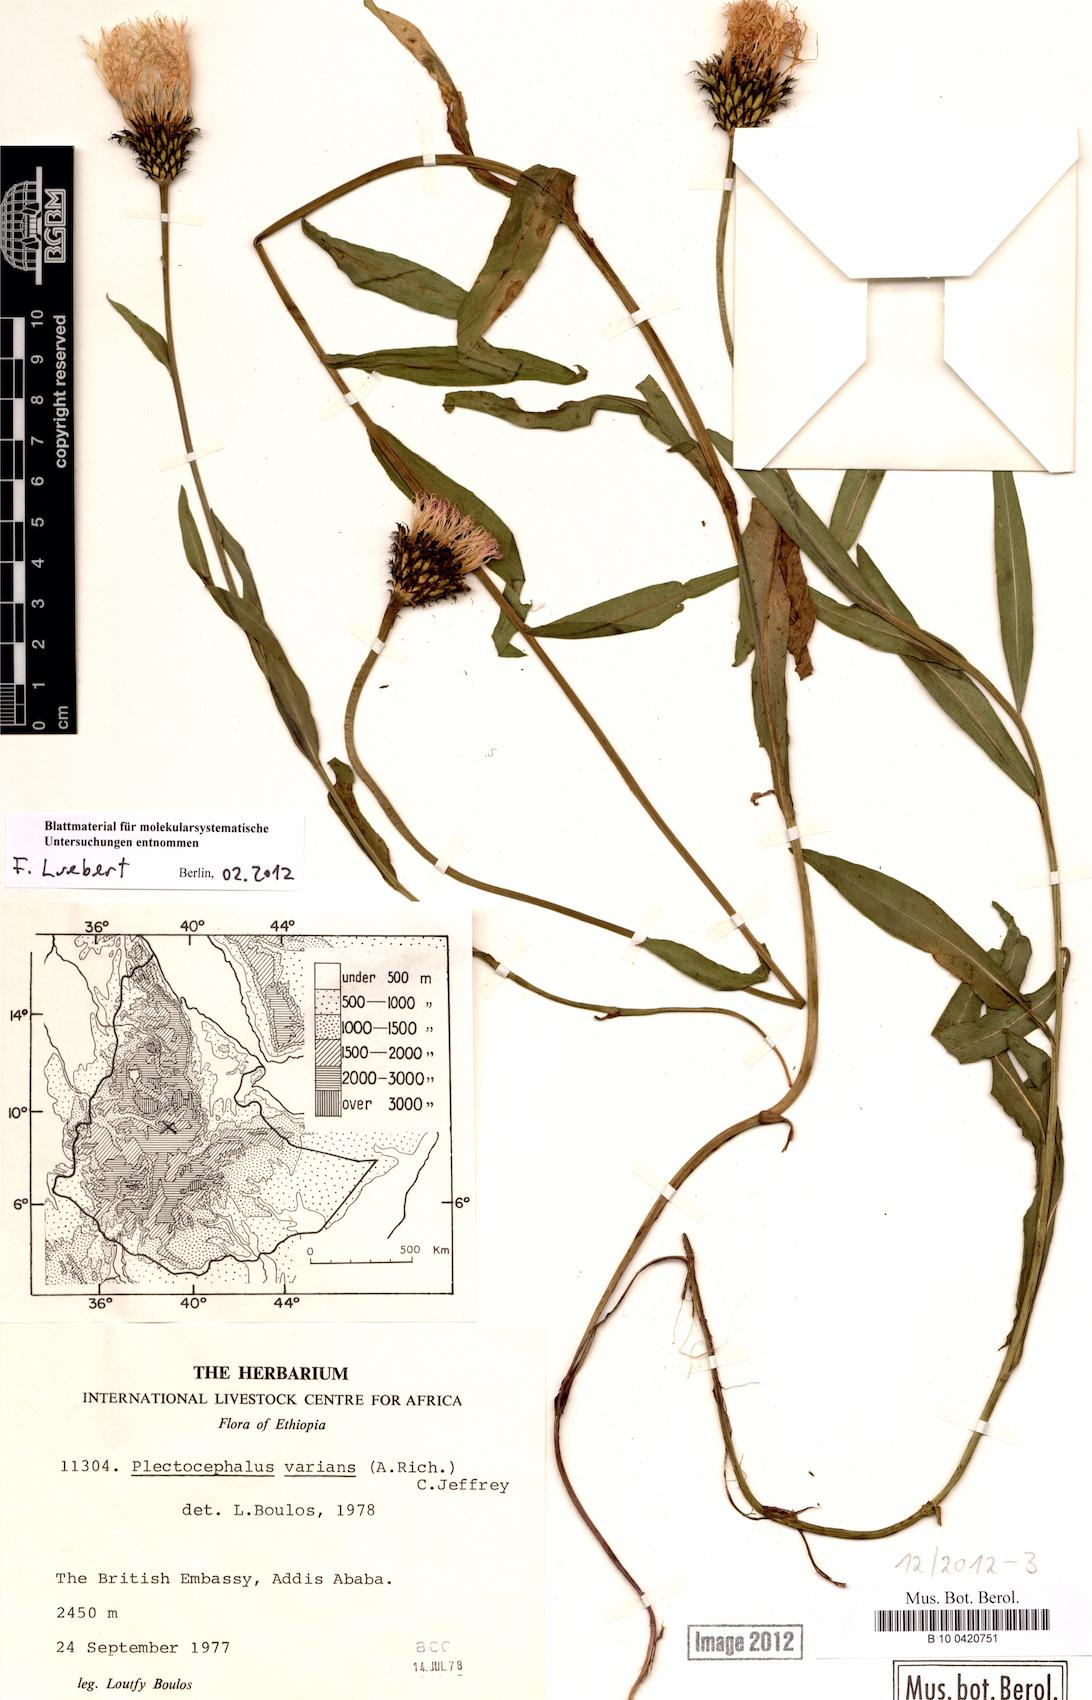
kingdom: Plantae
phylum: Tracheophyta
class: Magnoliopsida
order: Asterales
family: Asteraceae
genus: Plectocephalus
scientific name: Plectocephalus varians
